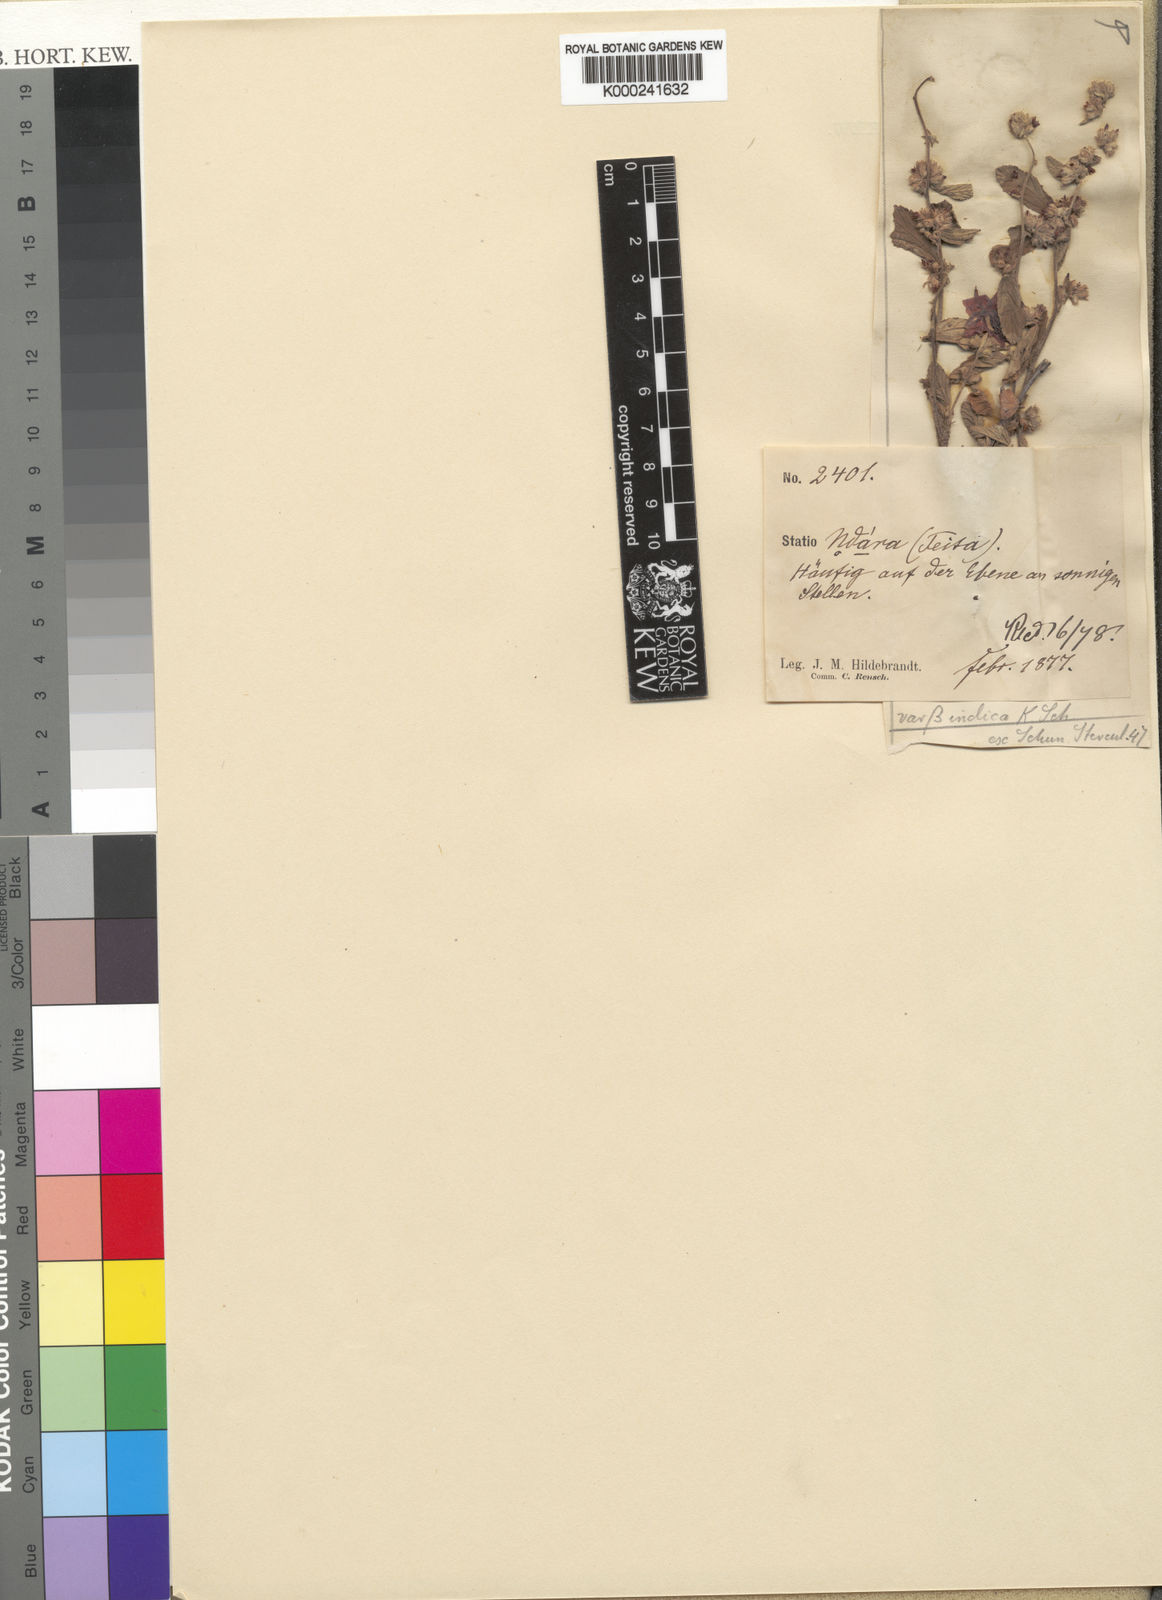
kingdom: Plantae
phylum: Tracheophyta
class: Magnoliopsida
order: Malvales
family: Malvaceae
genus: Waltheria
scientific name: Waltheria indica
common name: Leather-coat
